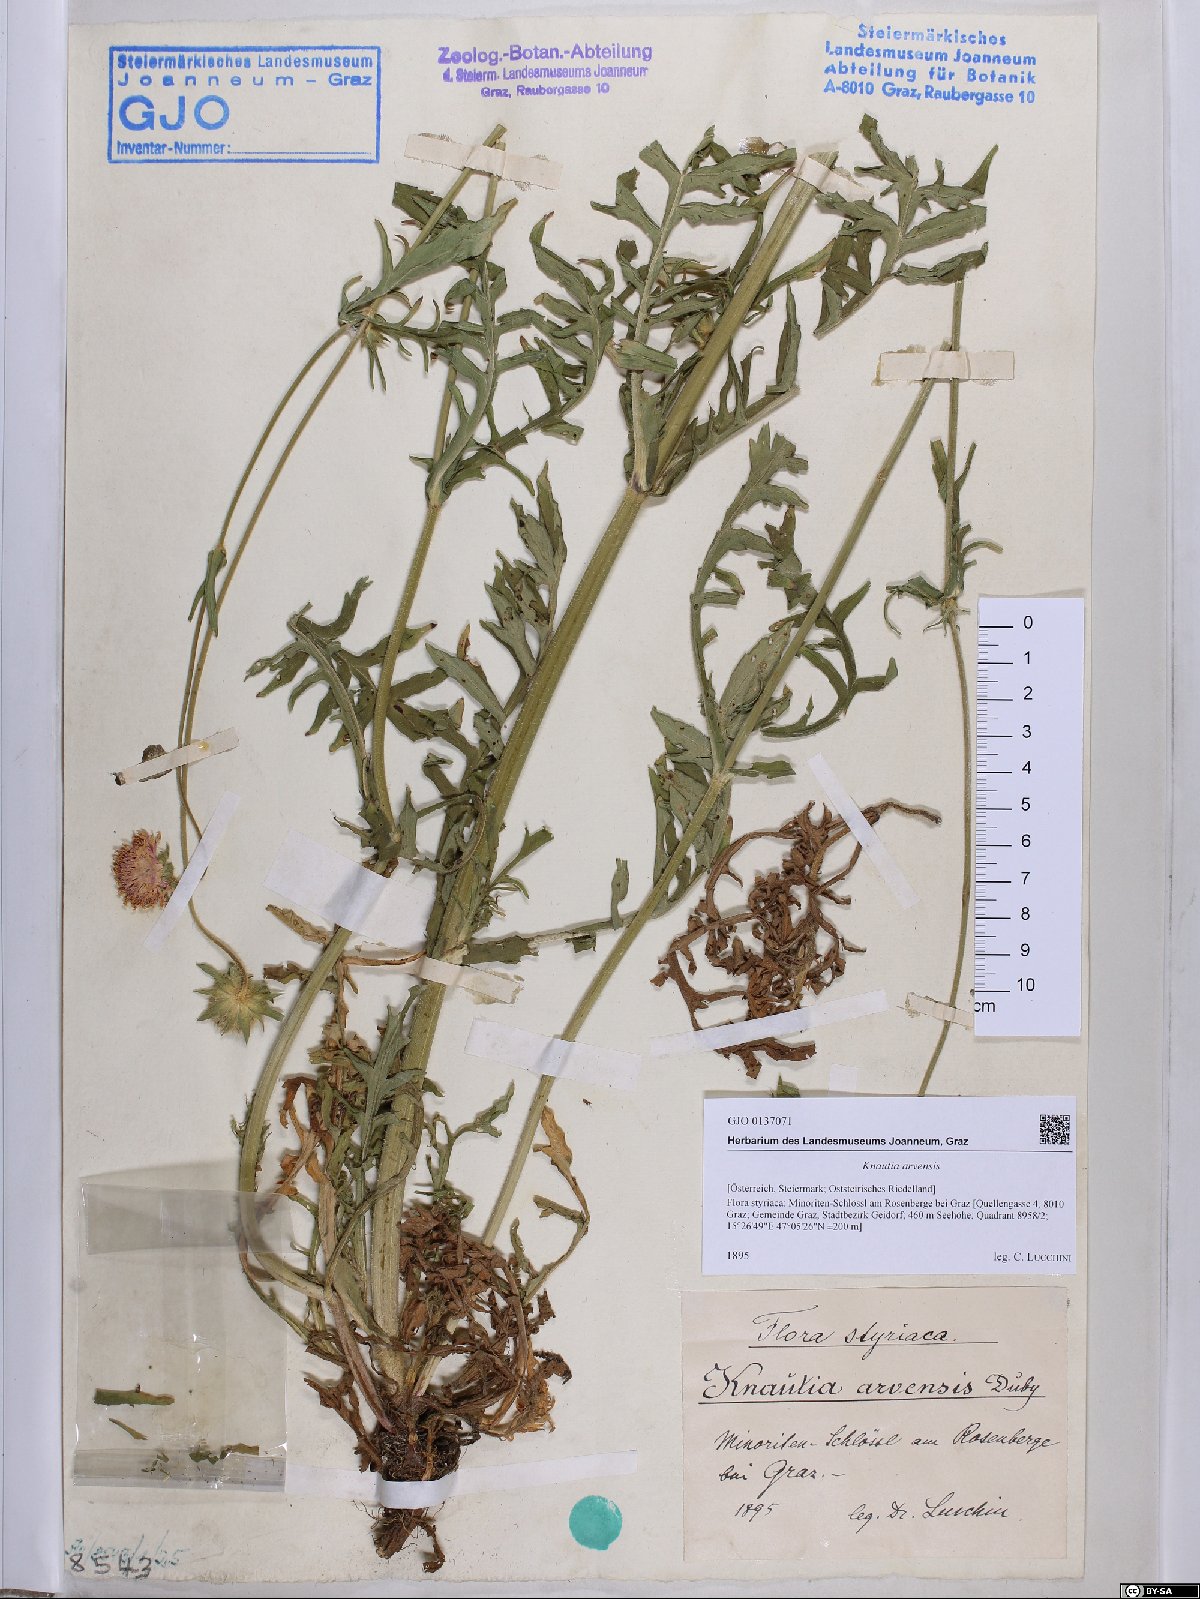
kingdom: Plantae
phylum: Tracheophyta
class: Magnoliopsida
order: Dipsacales
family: Caprifoliaceae
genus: Knautia
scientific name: Knautia arvensis
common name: Field scabiosa
